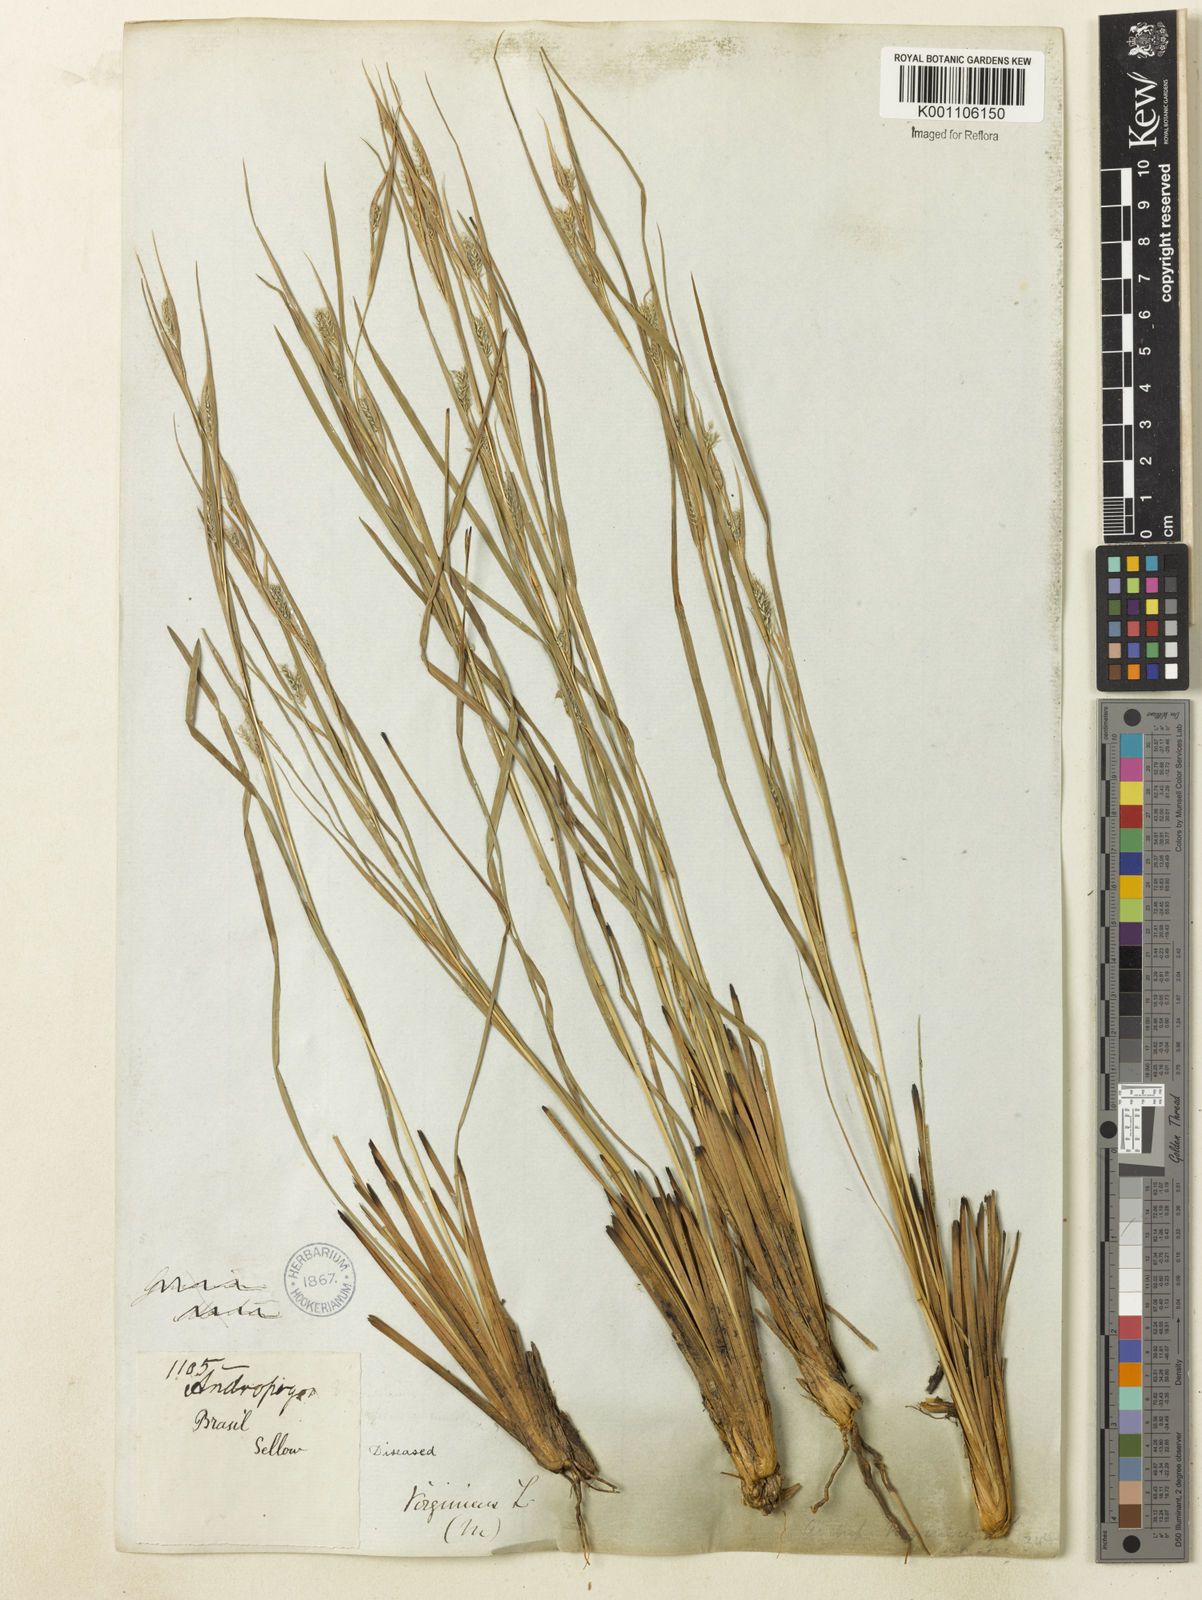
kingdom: Plantae
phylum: Tracheophyta
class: Liliopsida
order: Poales
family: Poaceae
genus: Andropogon
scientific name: Andropogon leucostachyus
